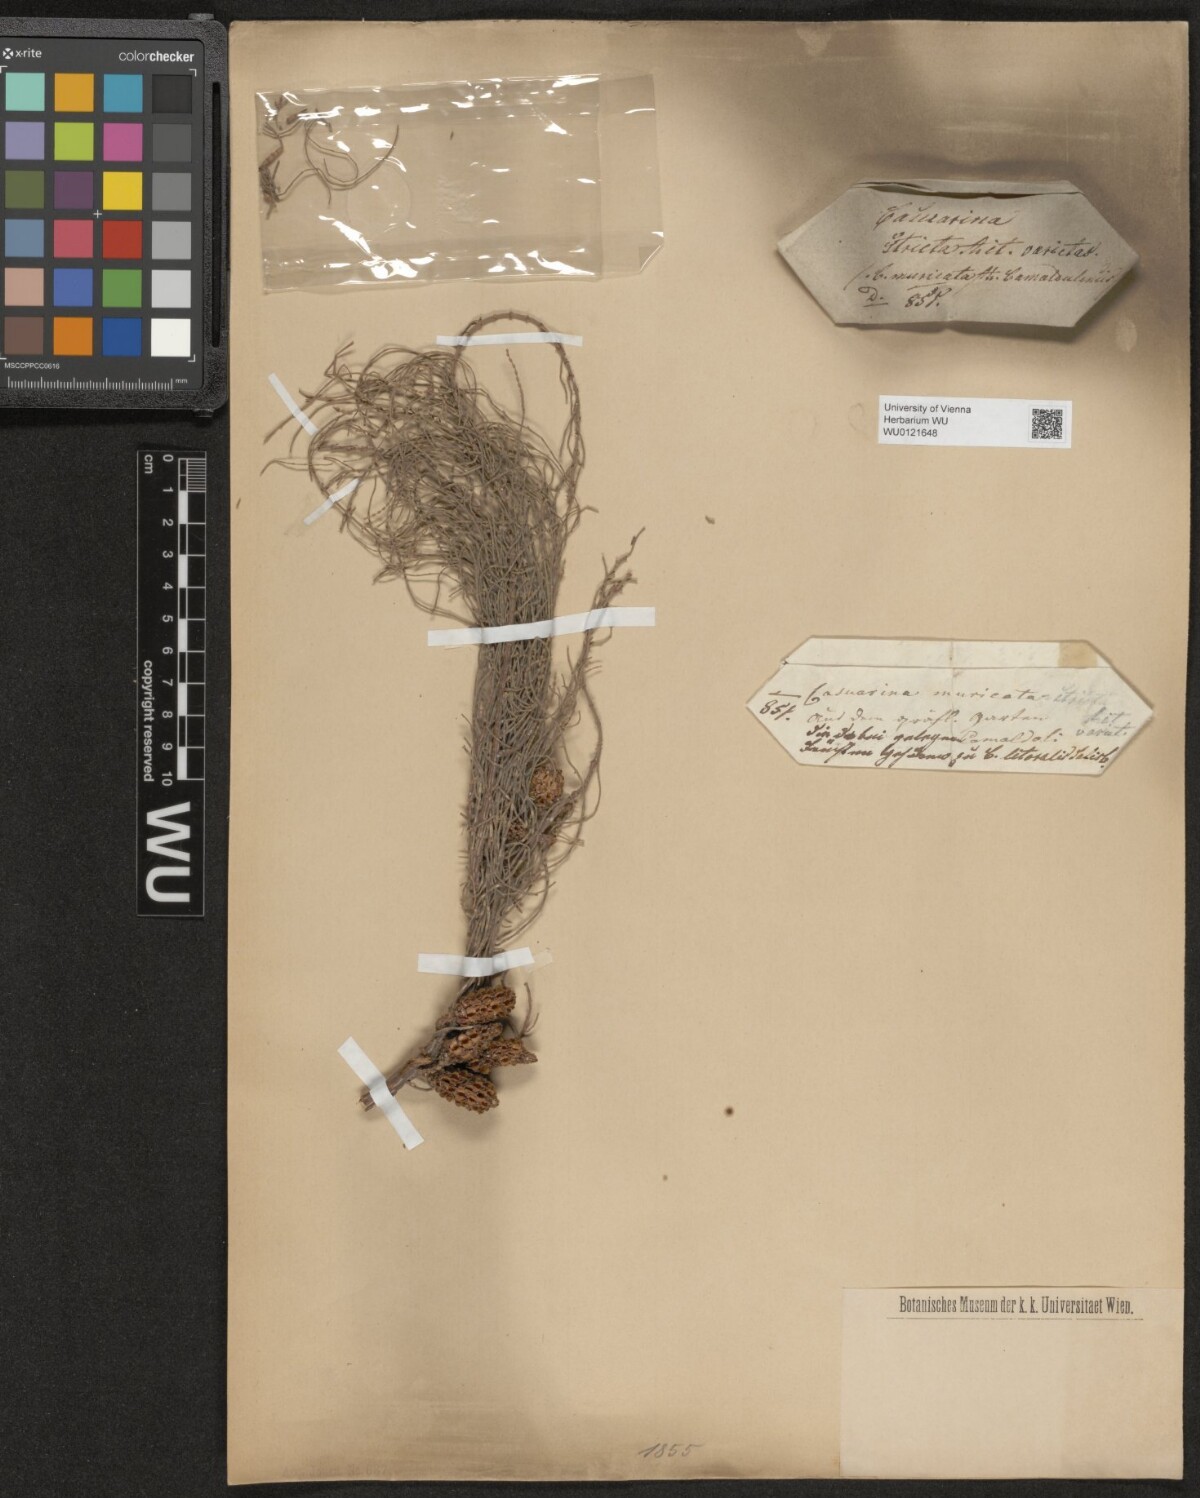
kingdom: Plantae
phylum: Tracheophyta
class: Magnoliopsida
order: Fagales
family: Casuarinaceae
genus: Casuarina
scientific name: Casuarina junghuhniana
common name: Mountain ru
